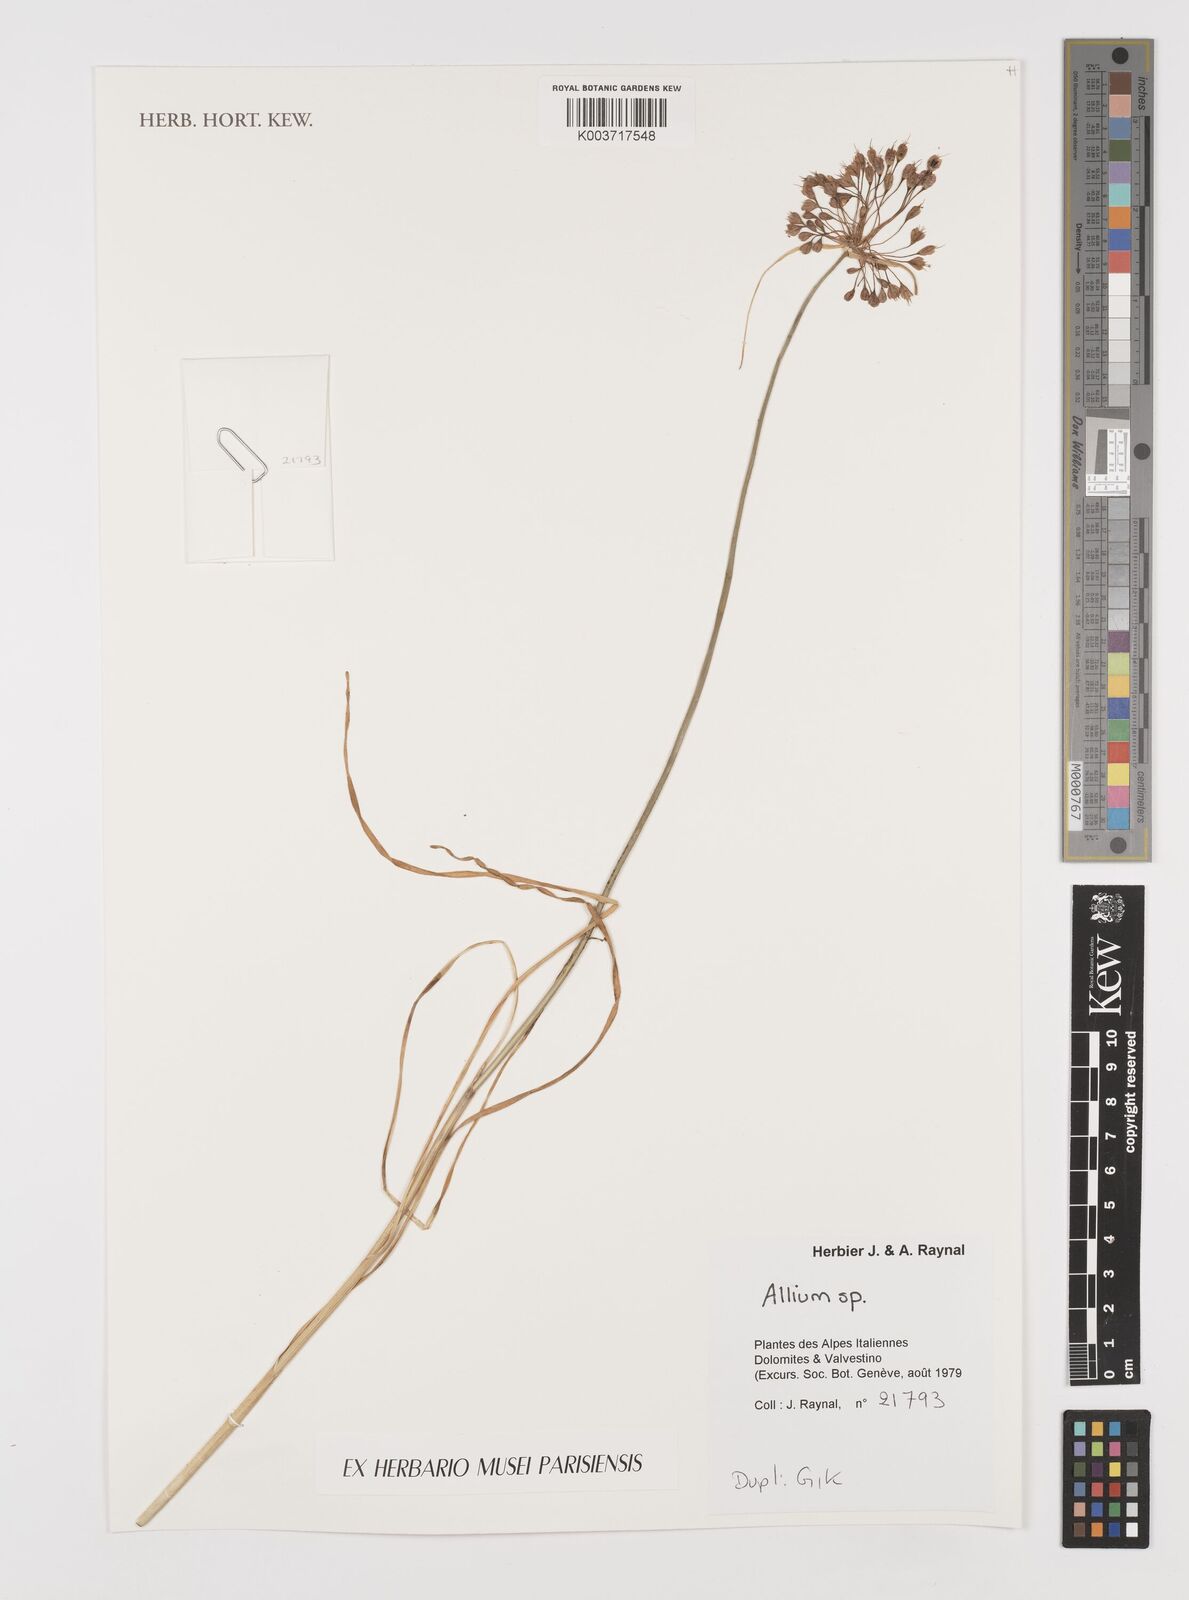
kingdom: Plantae
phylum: Tracheophyta
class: Liliopsida
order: Asparagales
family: Amaryllidaceae
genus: Allium
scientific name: Allium
